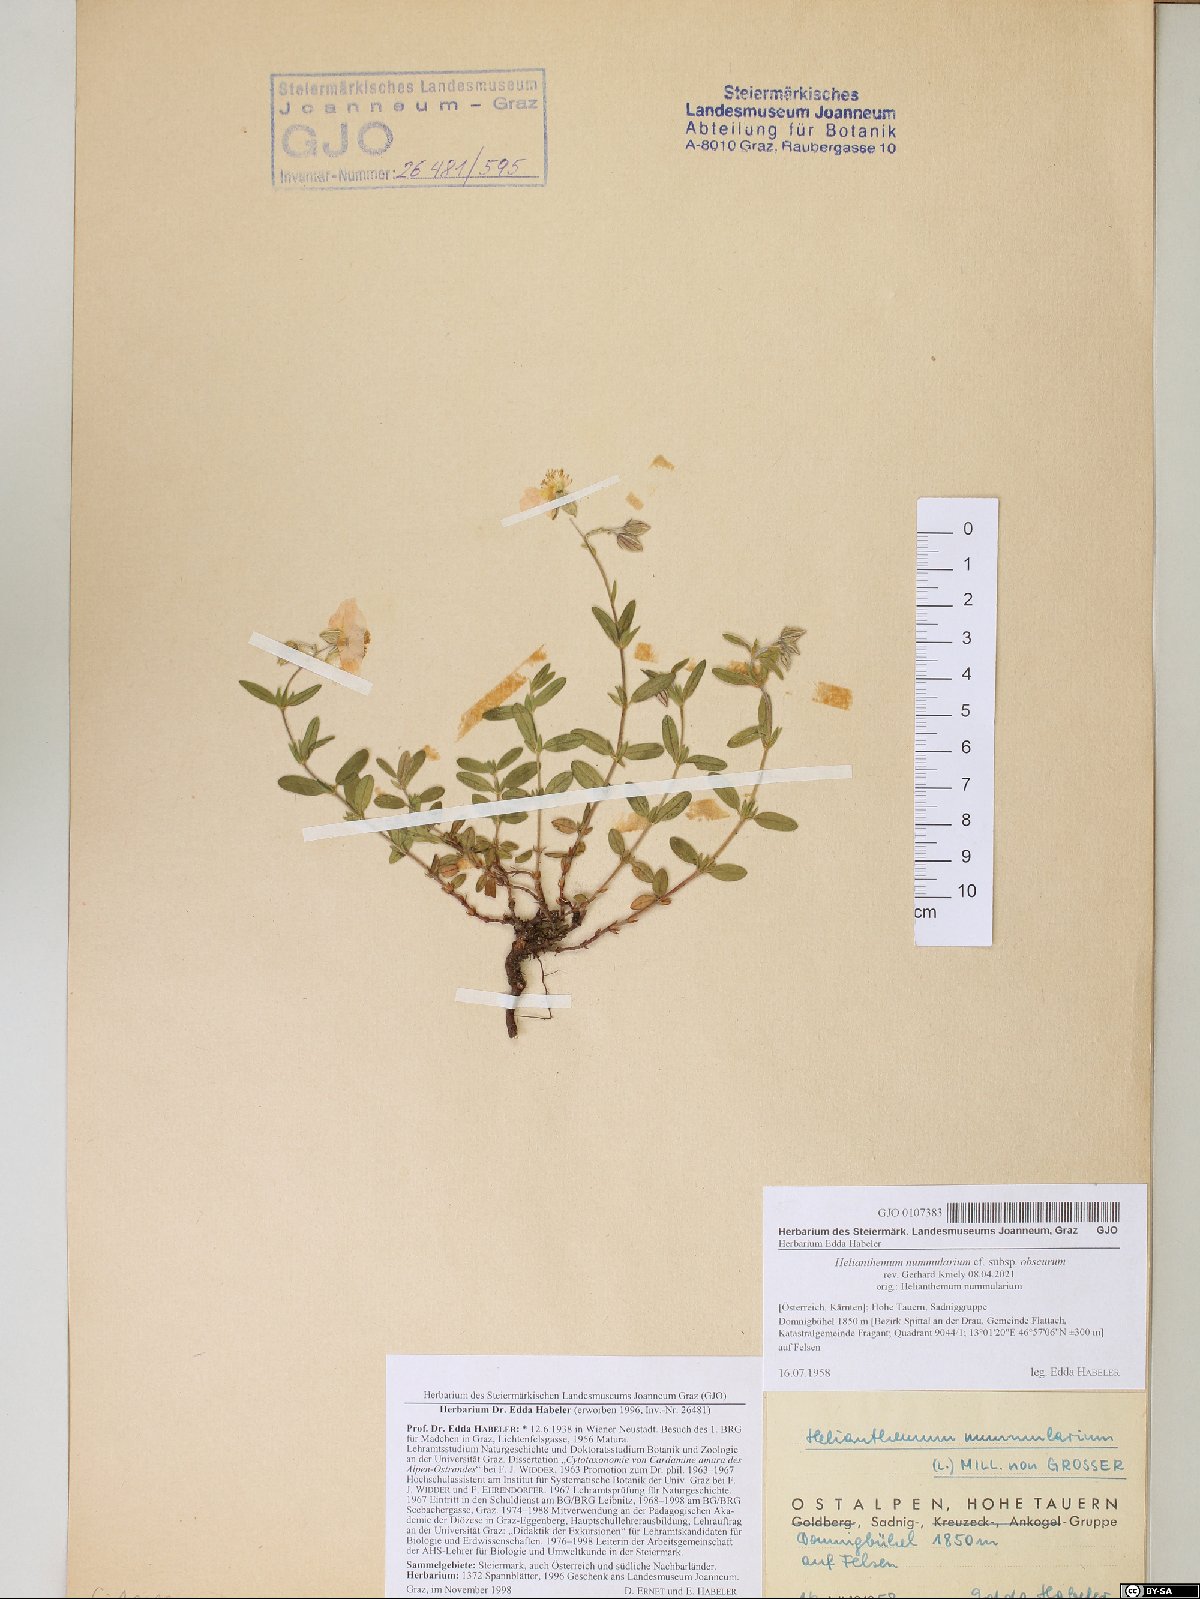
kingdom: Plantae
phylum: Tracheophyta
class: Magnoliopsida
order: Malvales
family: Cistaceae
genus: Helianthemum
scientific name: Helianthemum nummularium
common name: Common rock-rose
